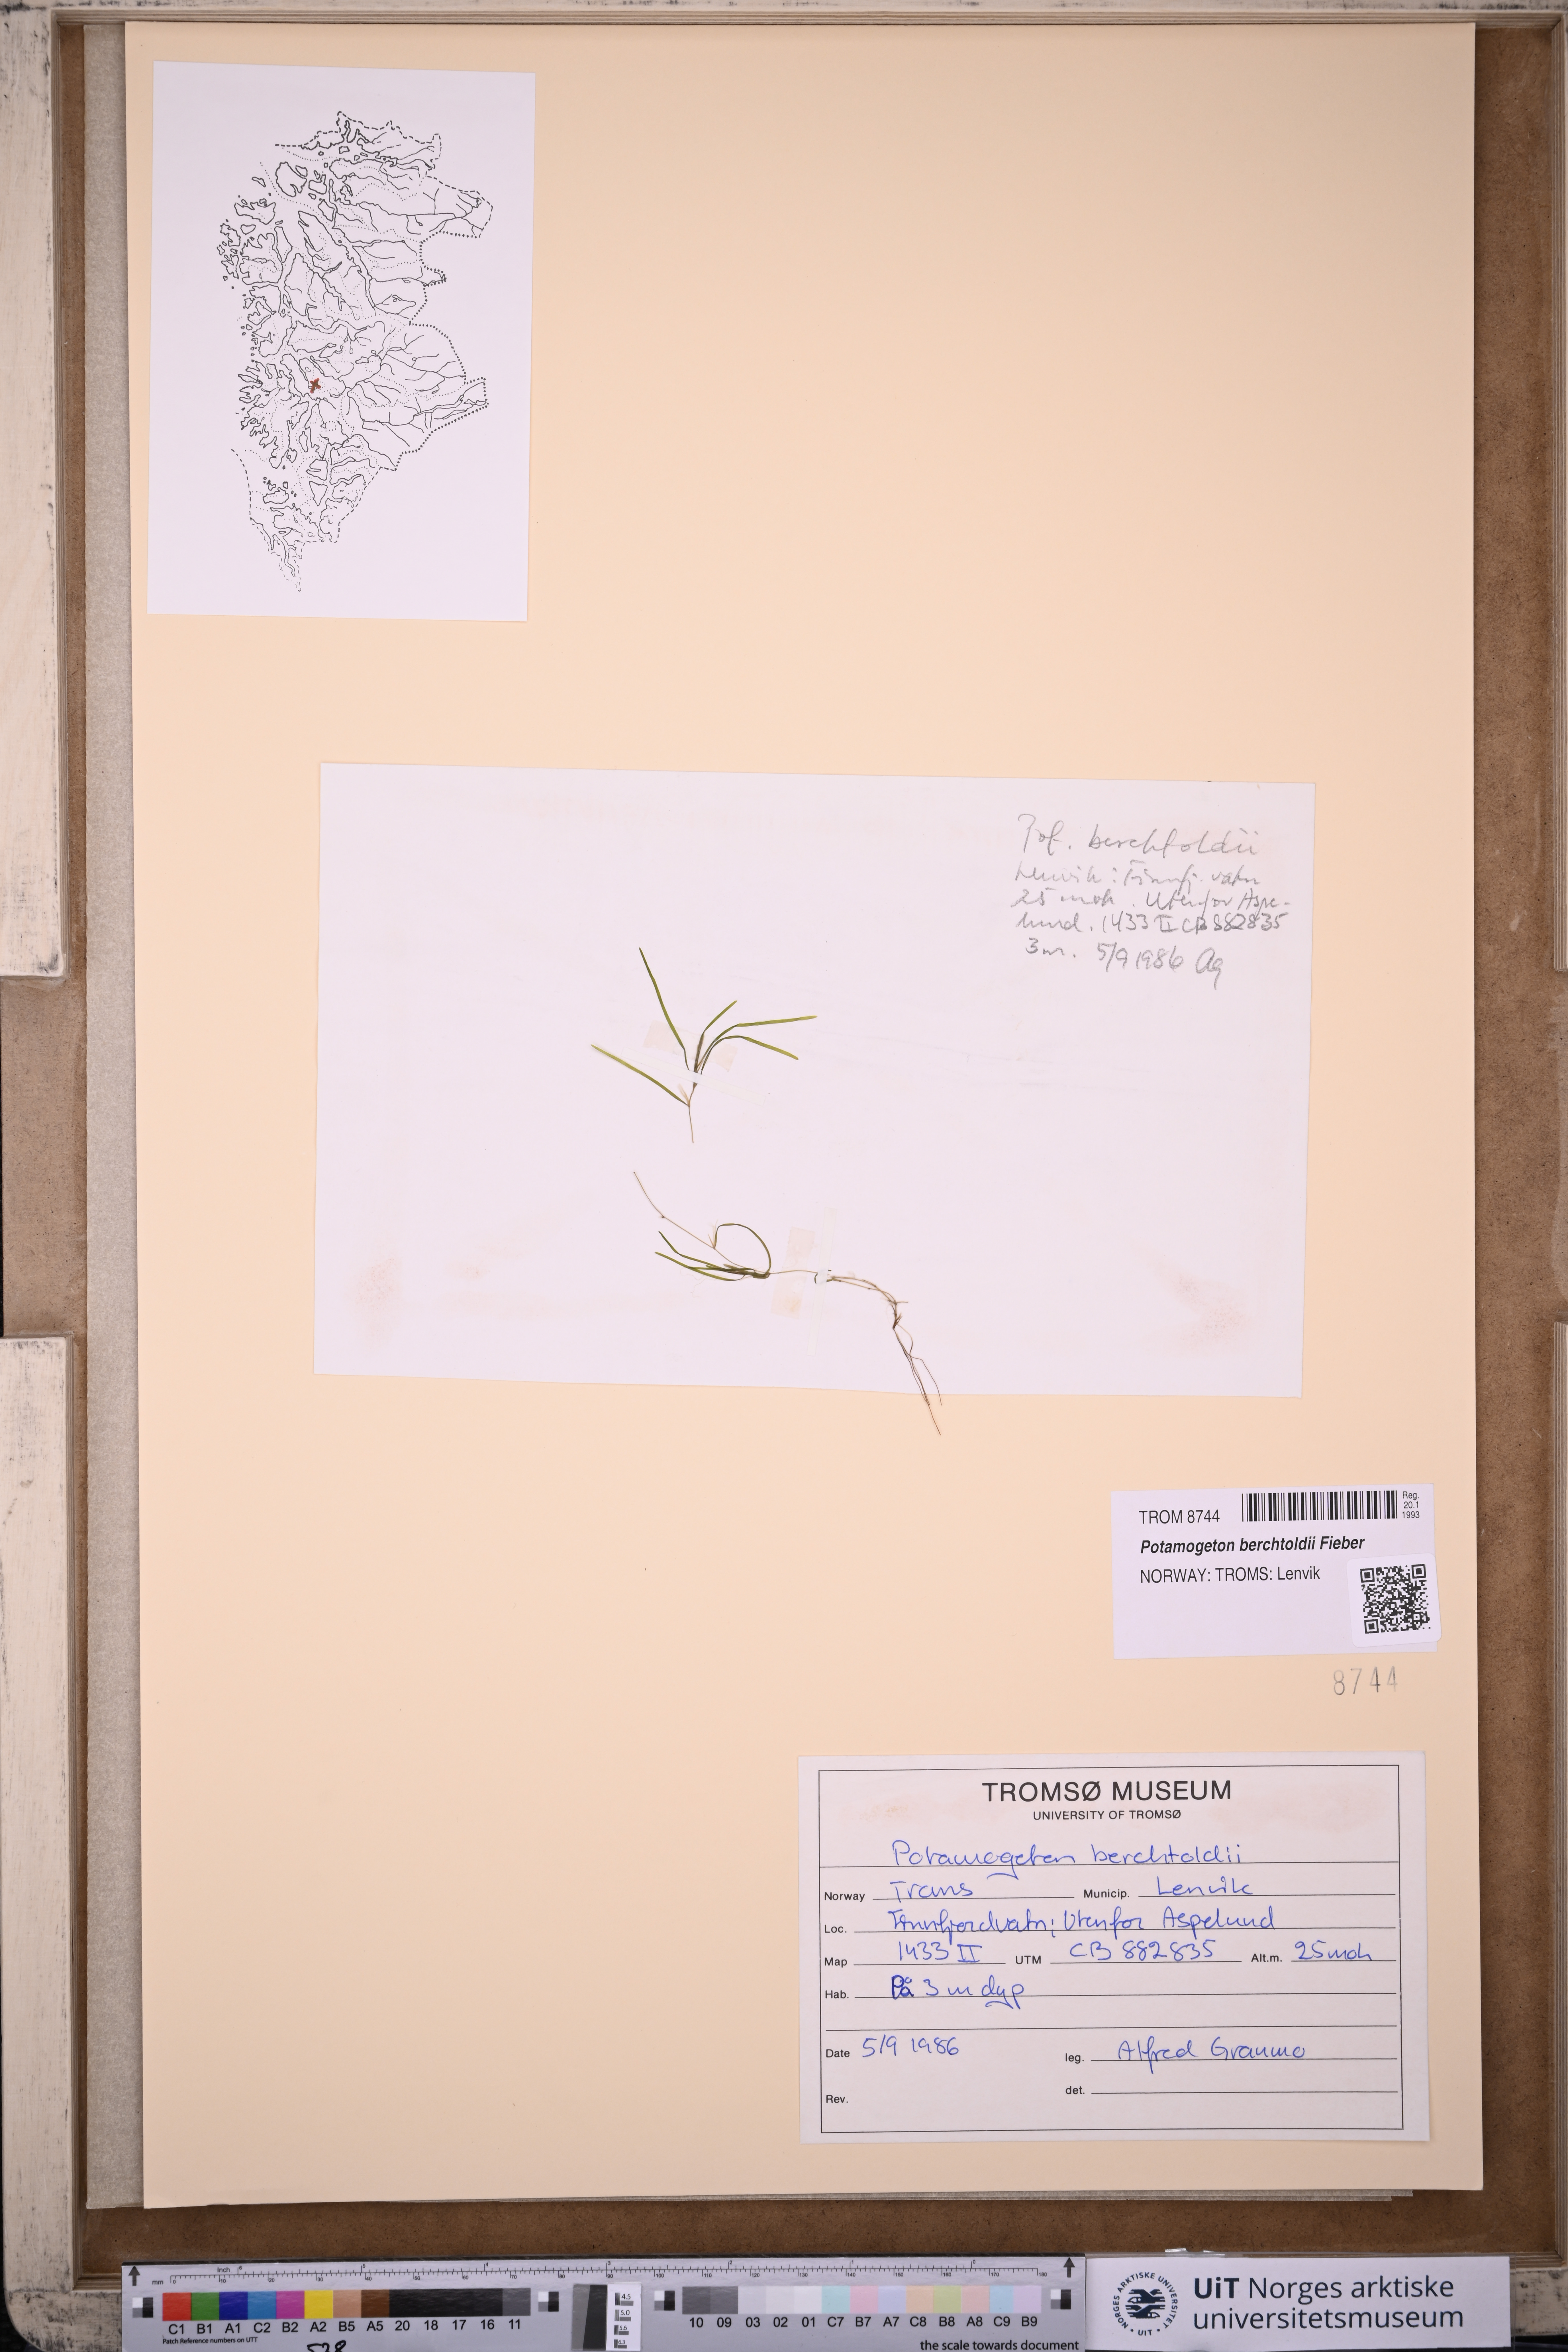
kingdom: Plantae
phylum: Tracheophyta
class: Liliopsida
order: Alismatales
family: Potamogetonaceae
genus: Potamogeton
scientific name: Potamogeton berchtoldii
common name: Small pondweed
